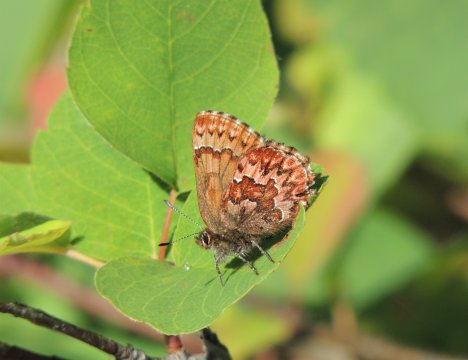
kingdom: Animalia
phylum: Arthropoda
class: Insecta
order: Lepidoptera
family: Lycaenidae
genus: Incisalia
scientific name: Incisalia eryphon
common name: Western Pine Elfin
